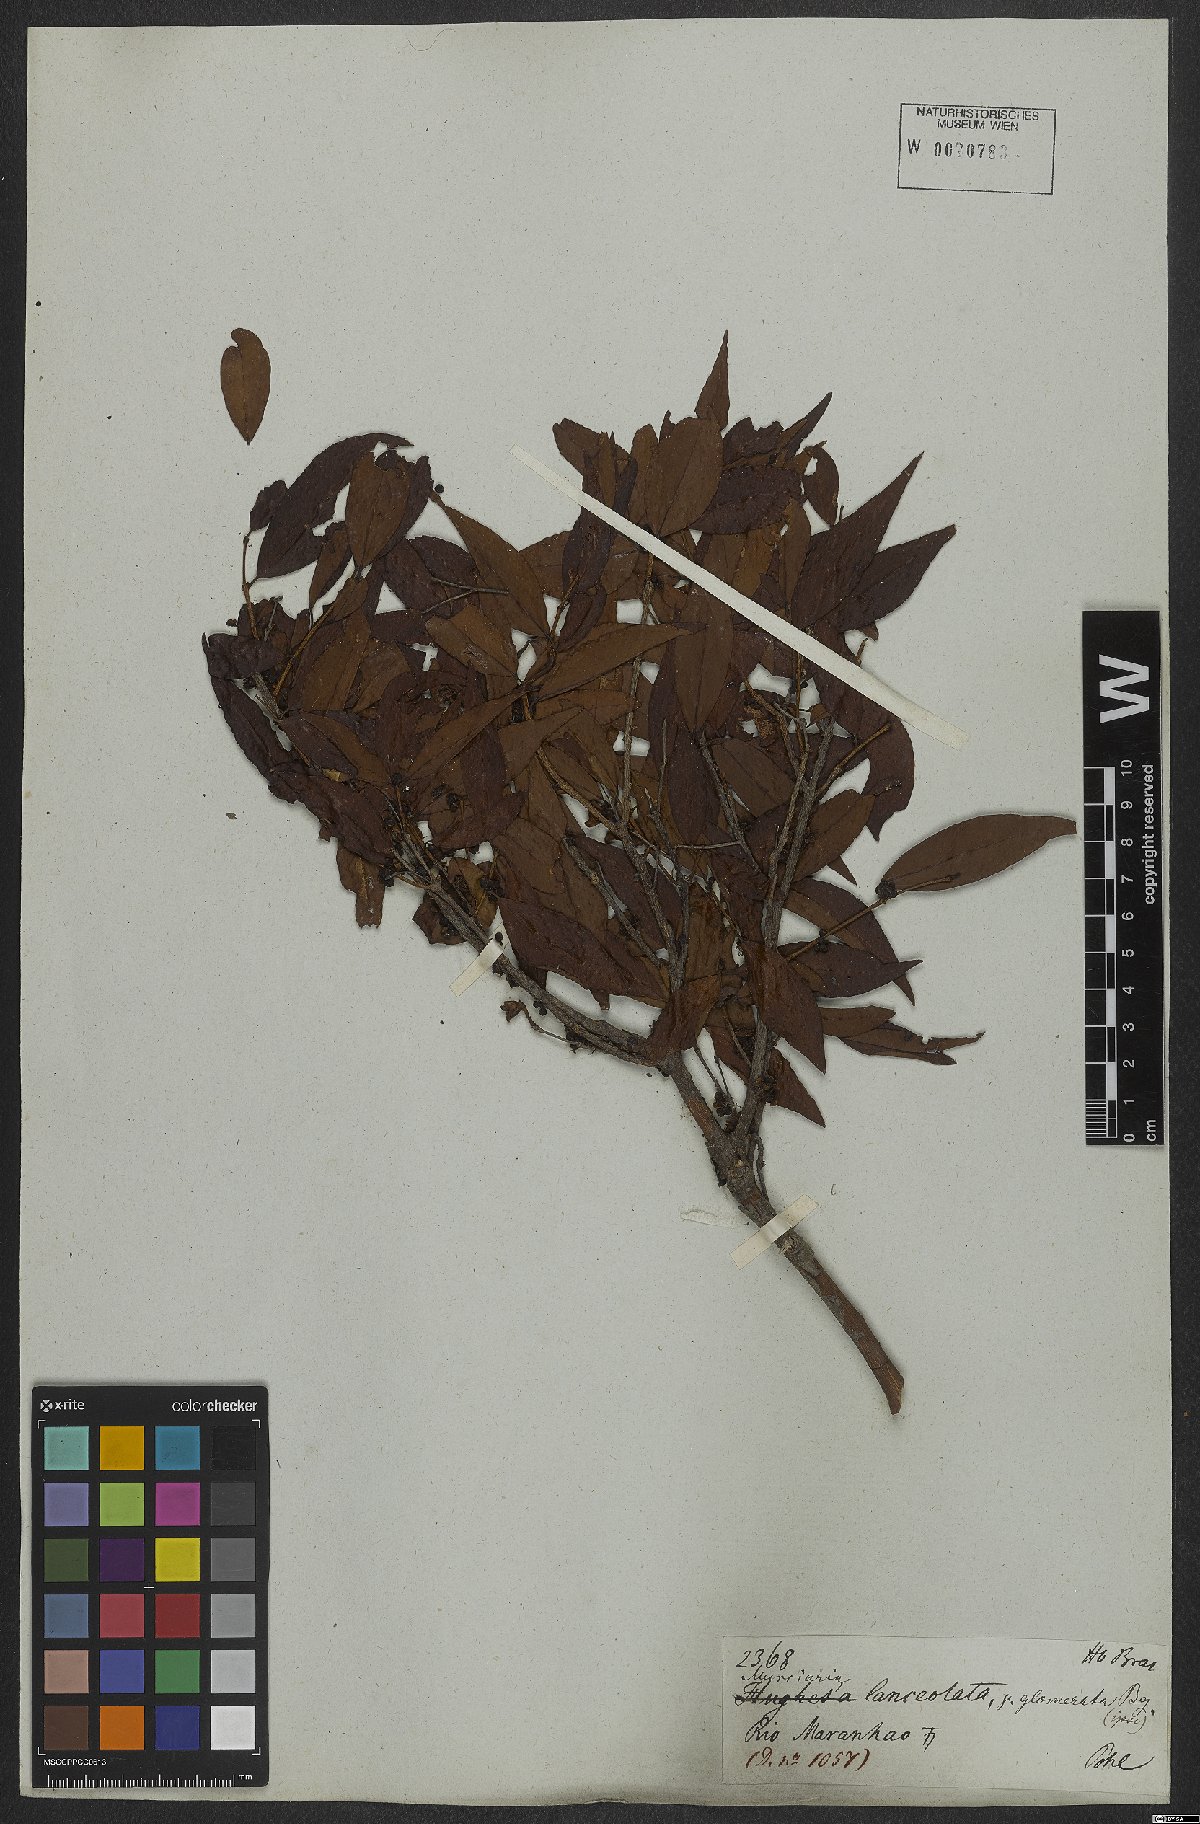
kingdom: Plantae
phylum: Tracheophyta
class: Magnoliopsida
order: Myrtales
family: Myrtaceae
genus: Myrciaria
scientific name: Myrciaria dubia
